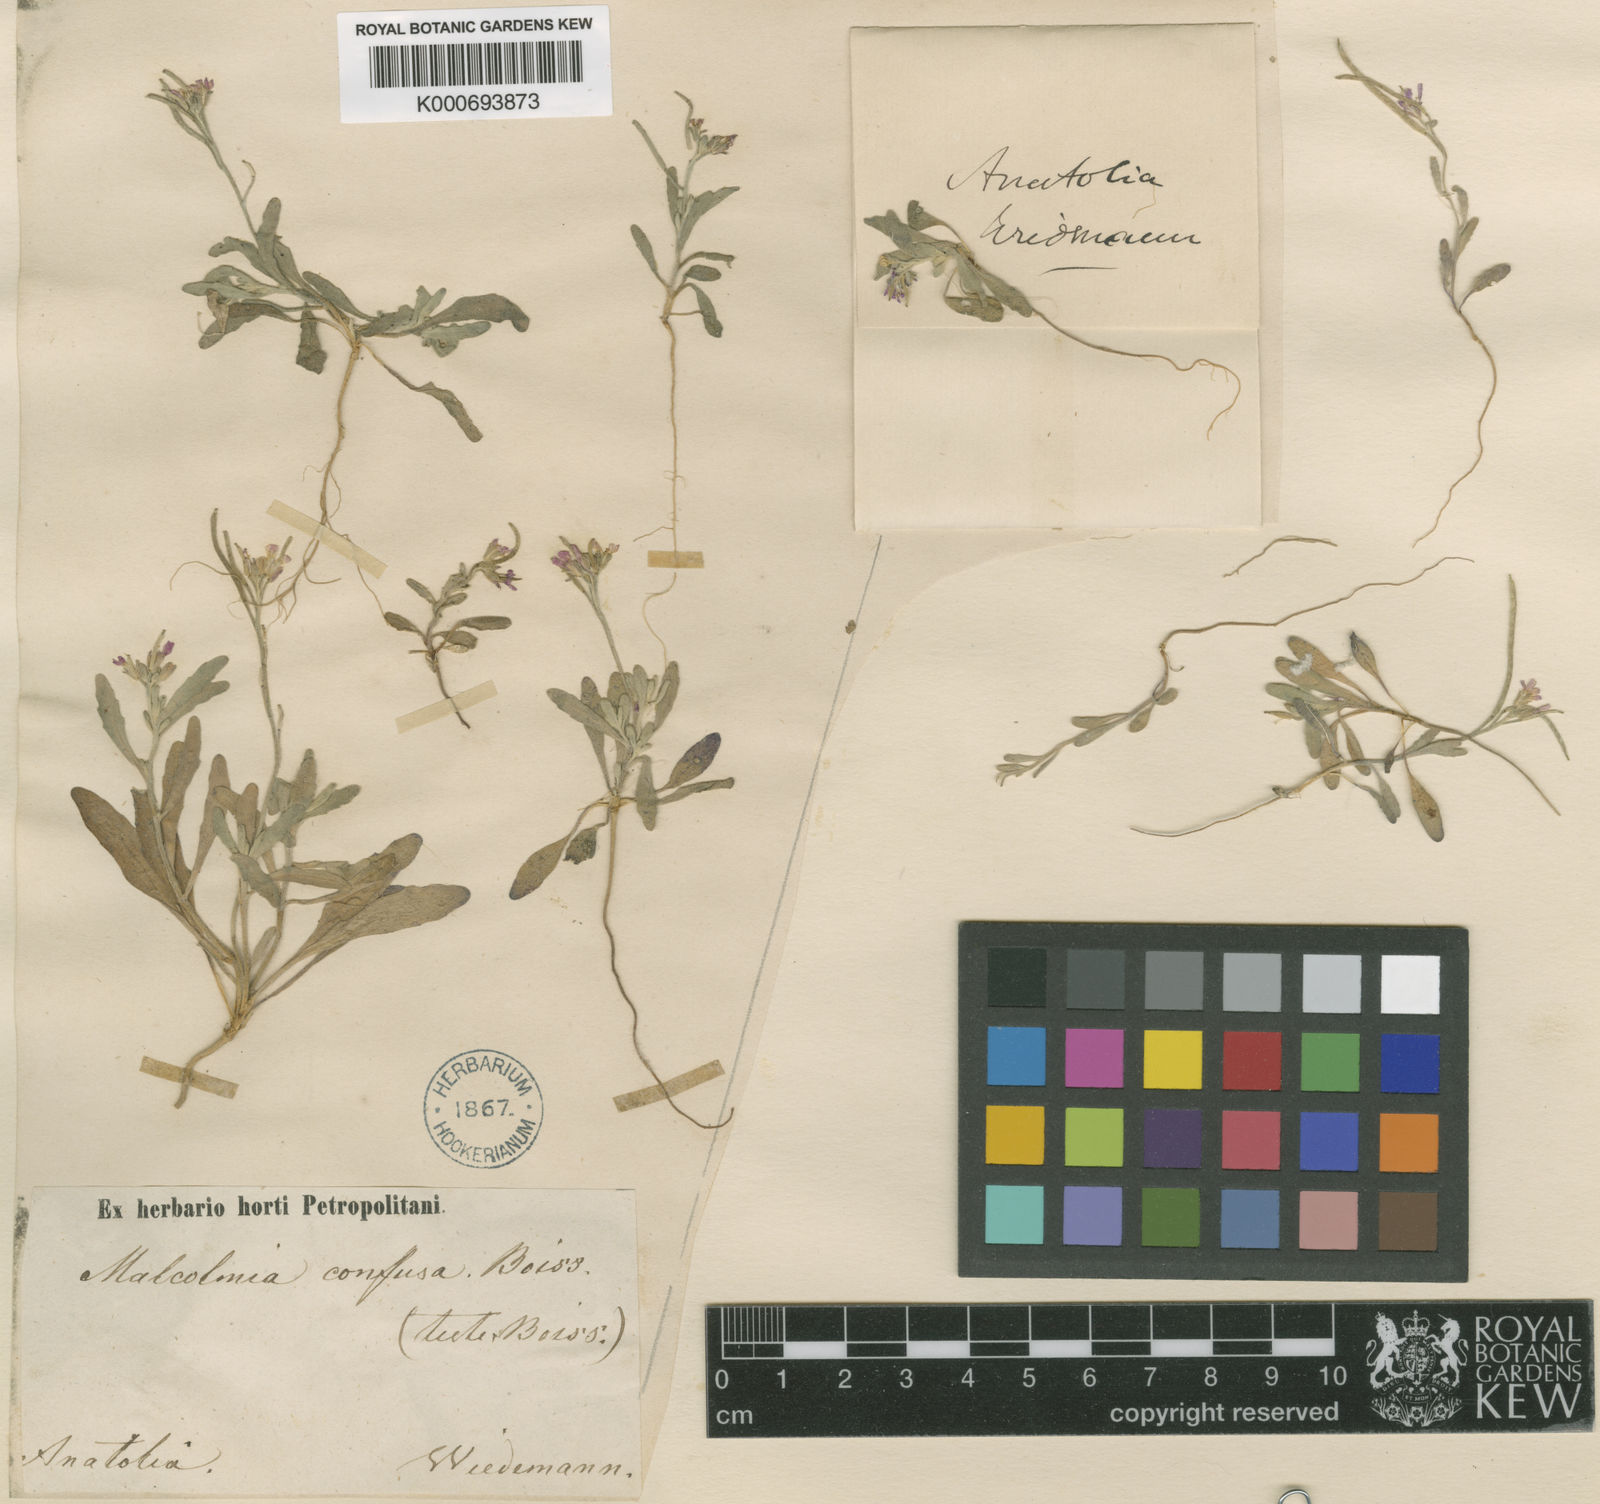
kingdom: Plantae
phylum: Tracheophyta
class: Magnoliopsida
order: Brassicales
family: Brassicaceae
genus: Maresia
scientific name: Maresia nana
